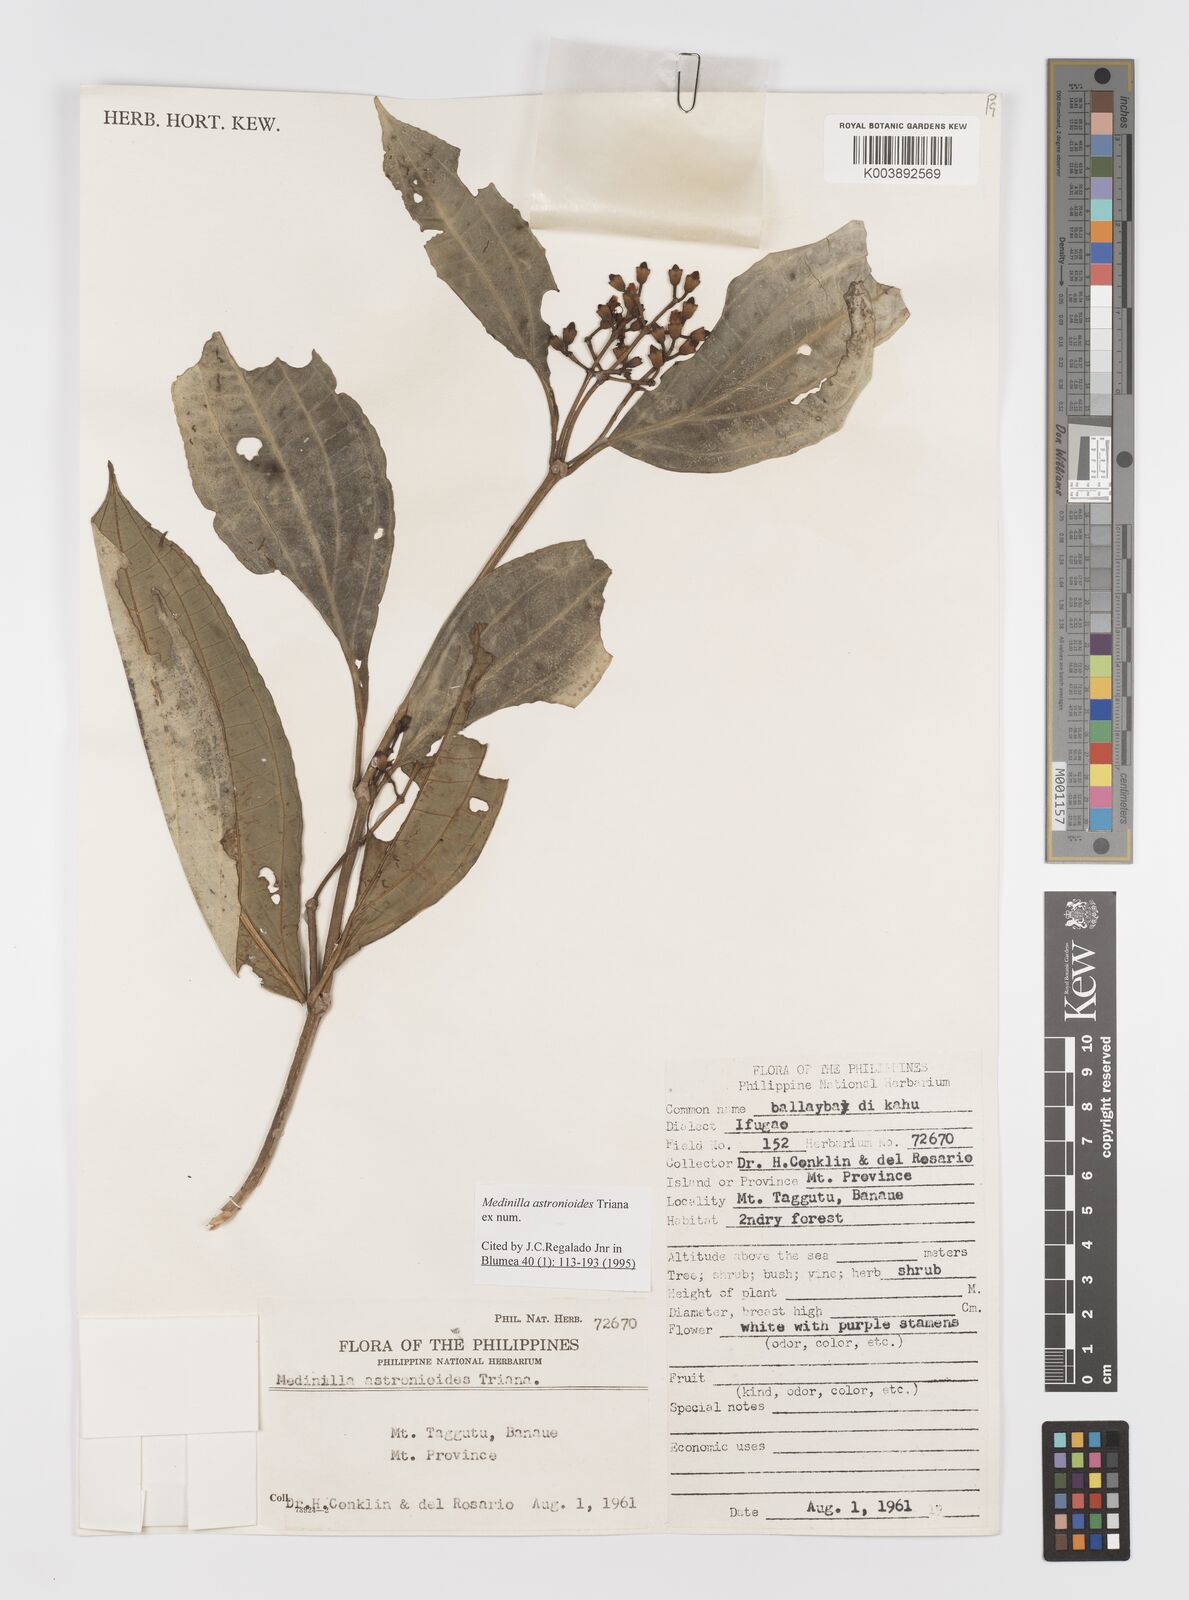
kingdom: Plantae
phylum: Tracheophyta
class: Magnoliopsida
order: Myrtales
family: Melastomataceae
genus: Medinilla
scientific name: Medinilla astronioides
